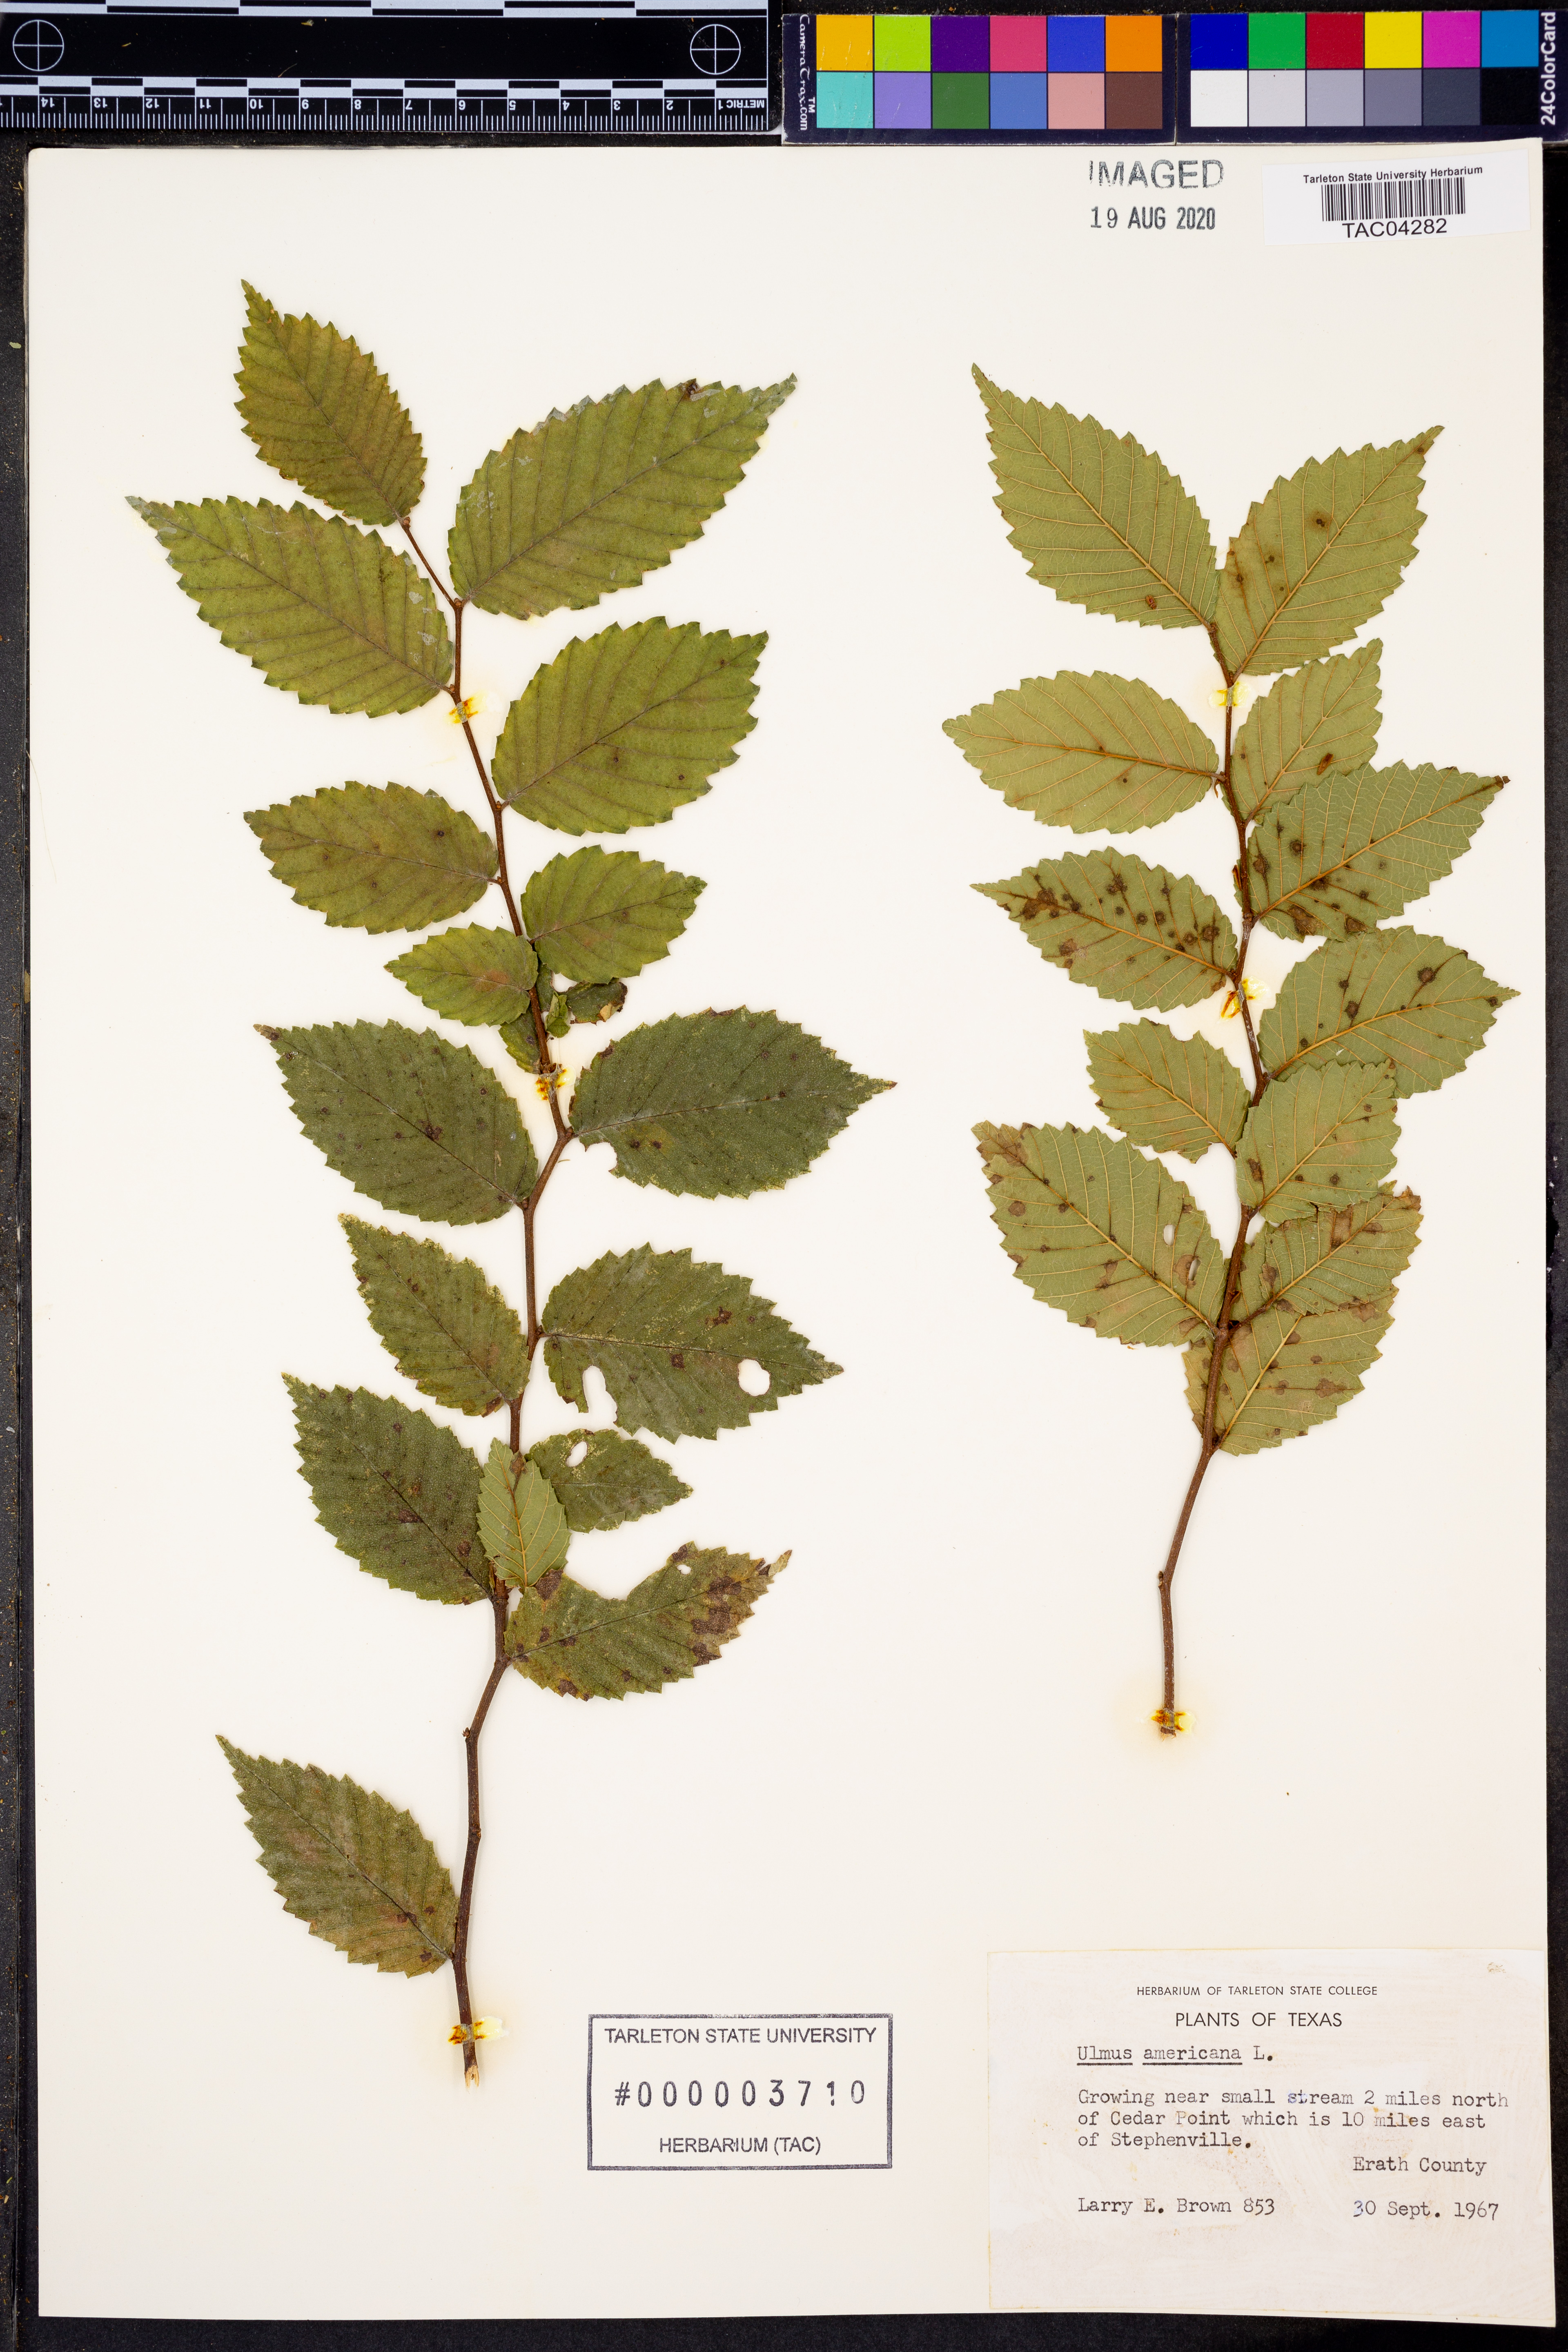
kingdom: Plantae
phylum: Tracheophyta
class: Magnoliopsida
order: Rosales
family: Ulmaceae
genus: Ulmus
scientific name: Ulmus americana
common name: American elm
